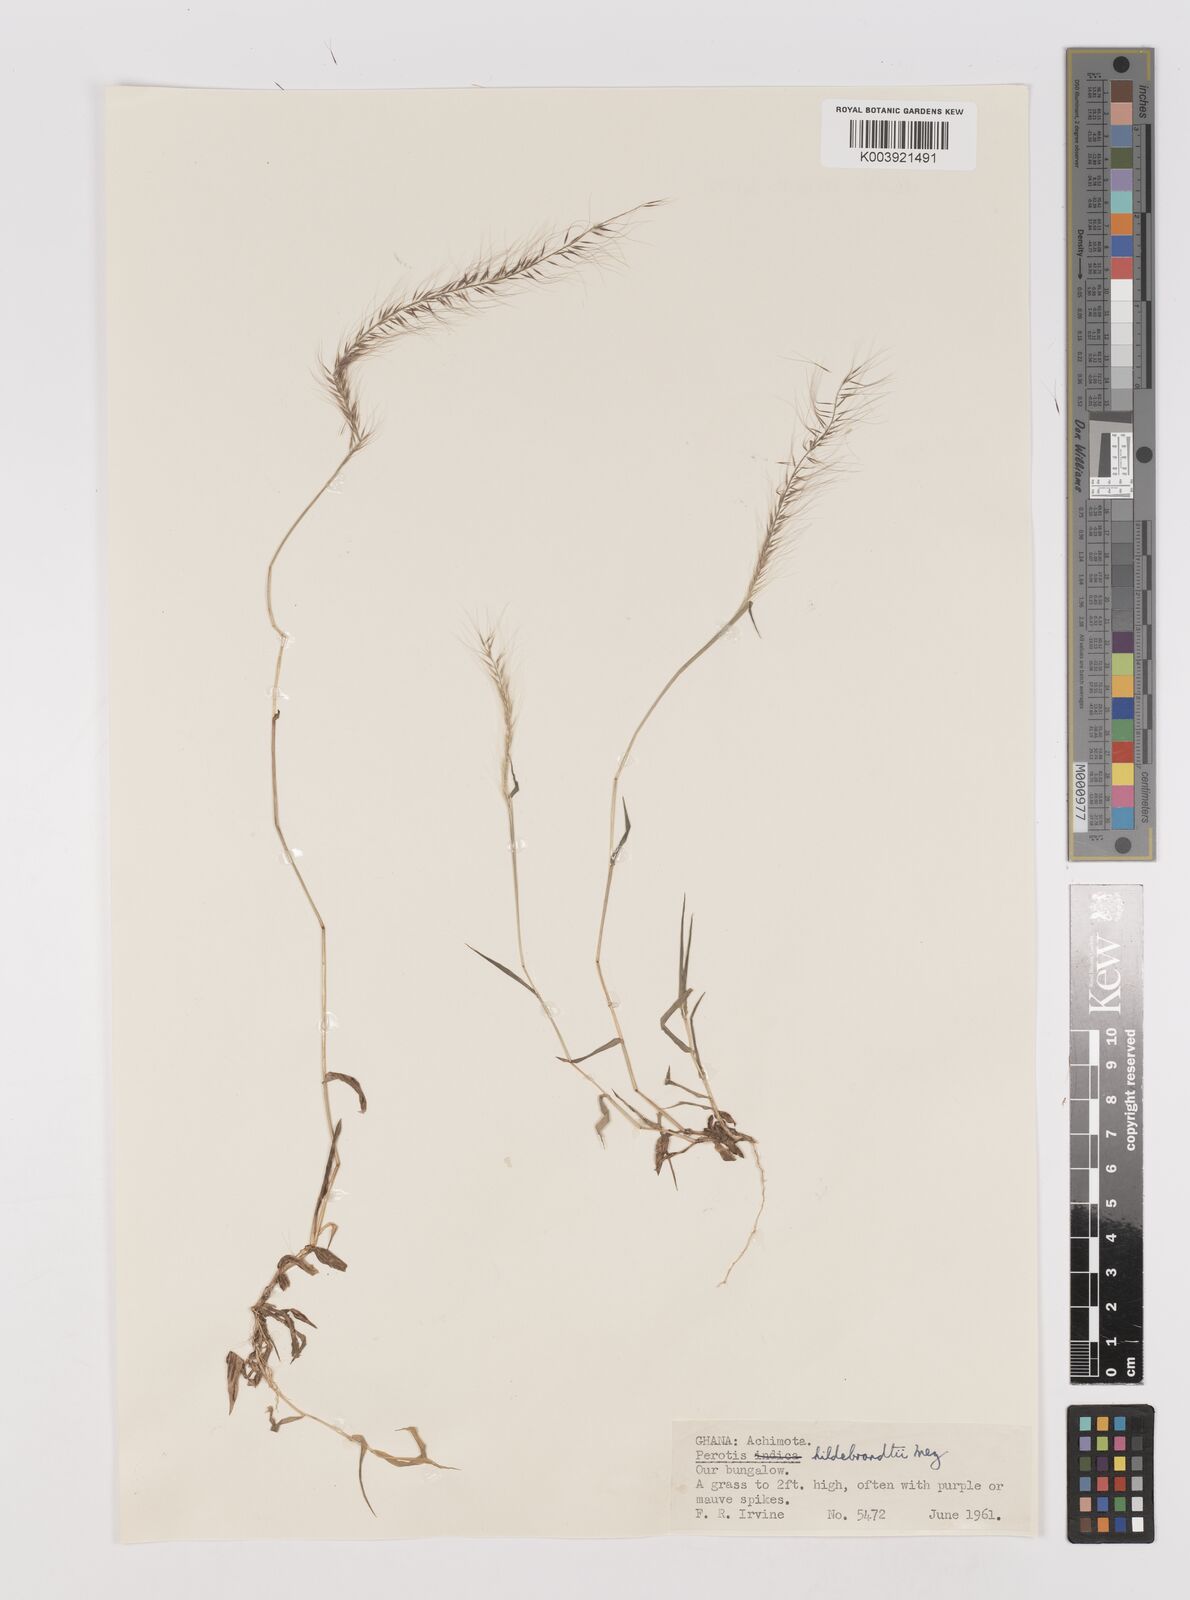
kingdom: Plantae
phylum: Tracheophyta
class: Liliopsida
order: Poales
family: Poaceae
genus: Perotis
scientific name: Perotis hildebrandtii
